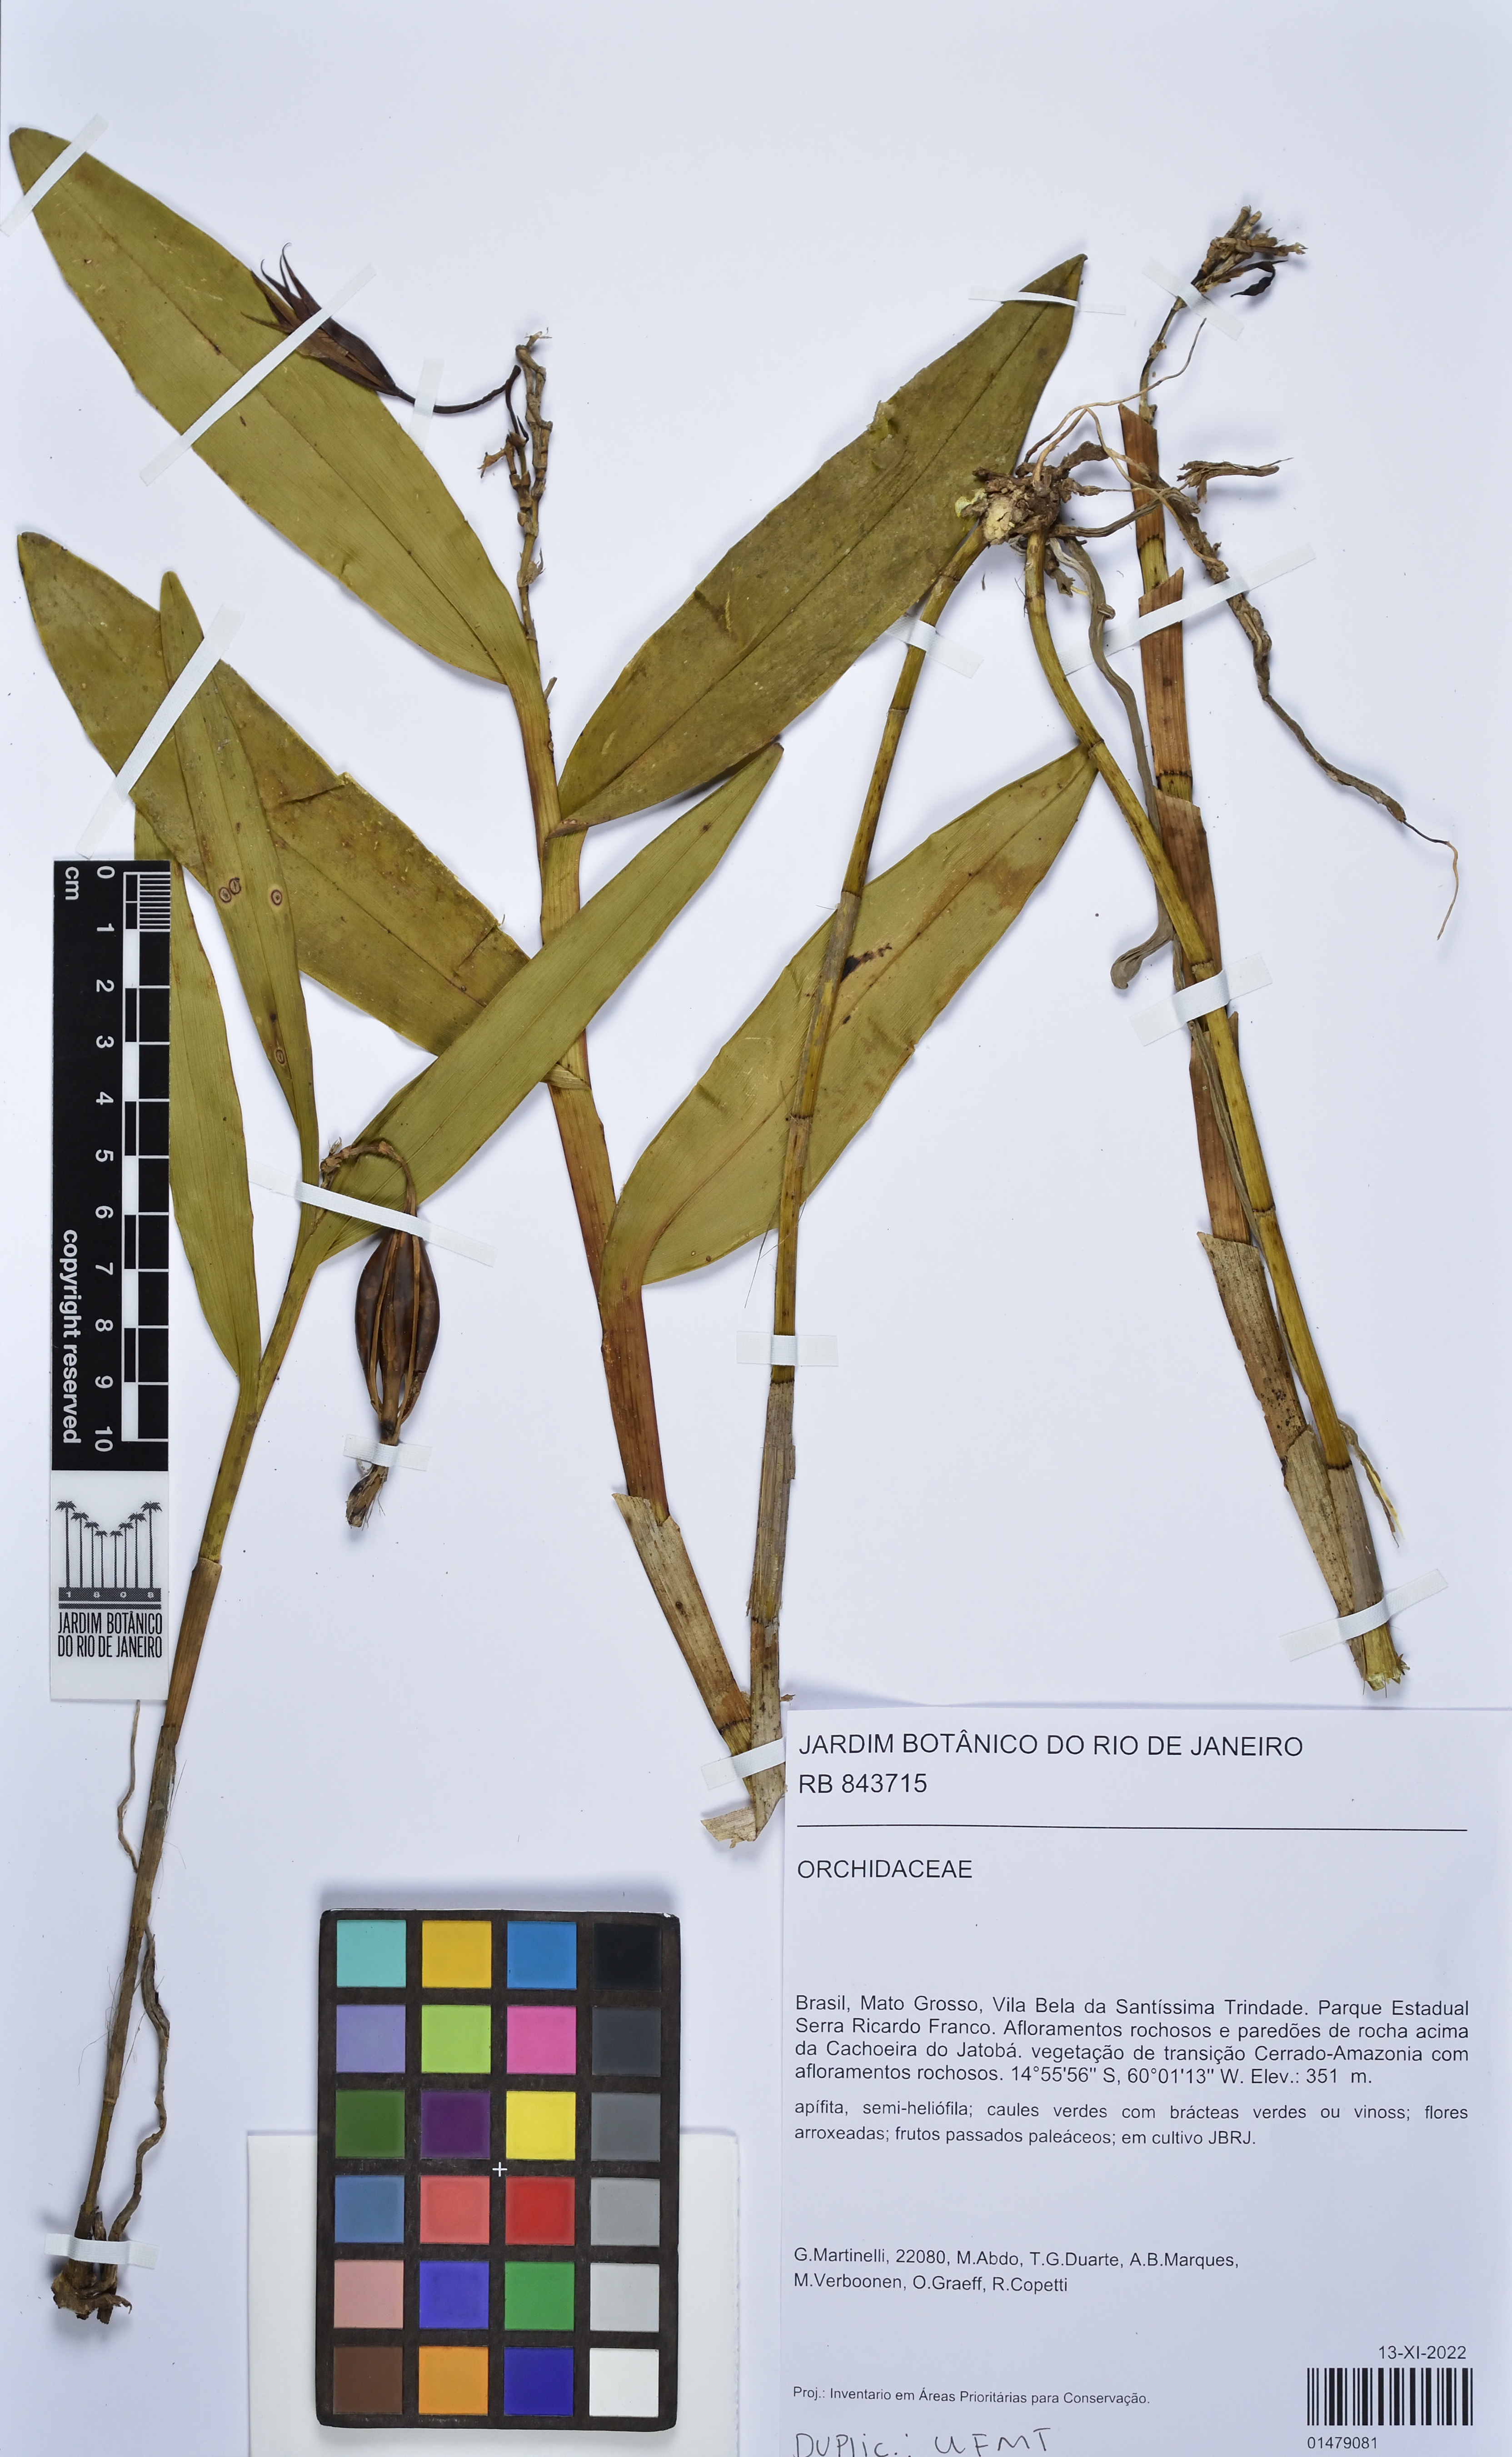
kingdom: Plantae
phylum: Tracheophyta
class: Liliopsida
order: Asparagales
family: Orchidaceae
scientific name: Orchidaceae
